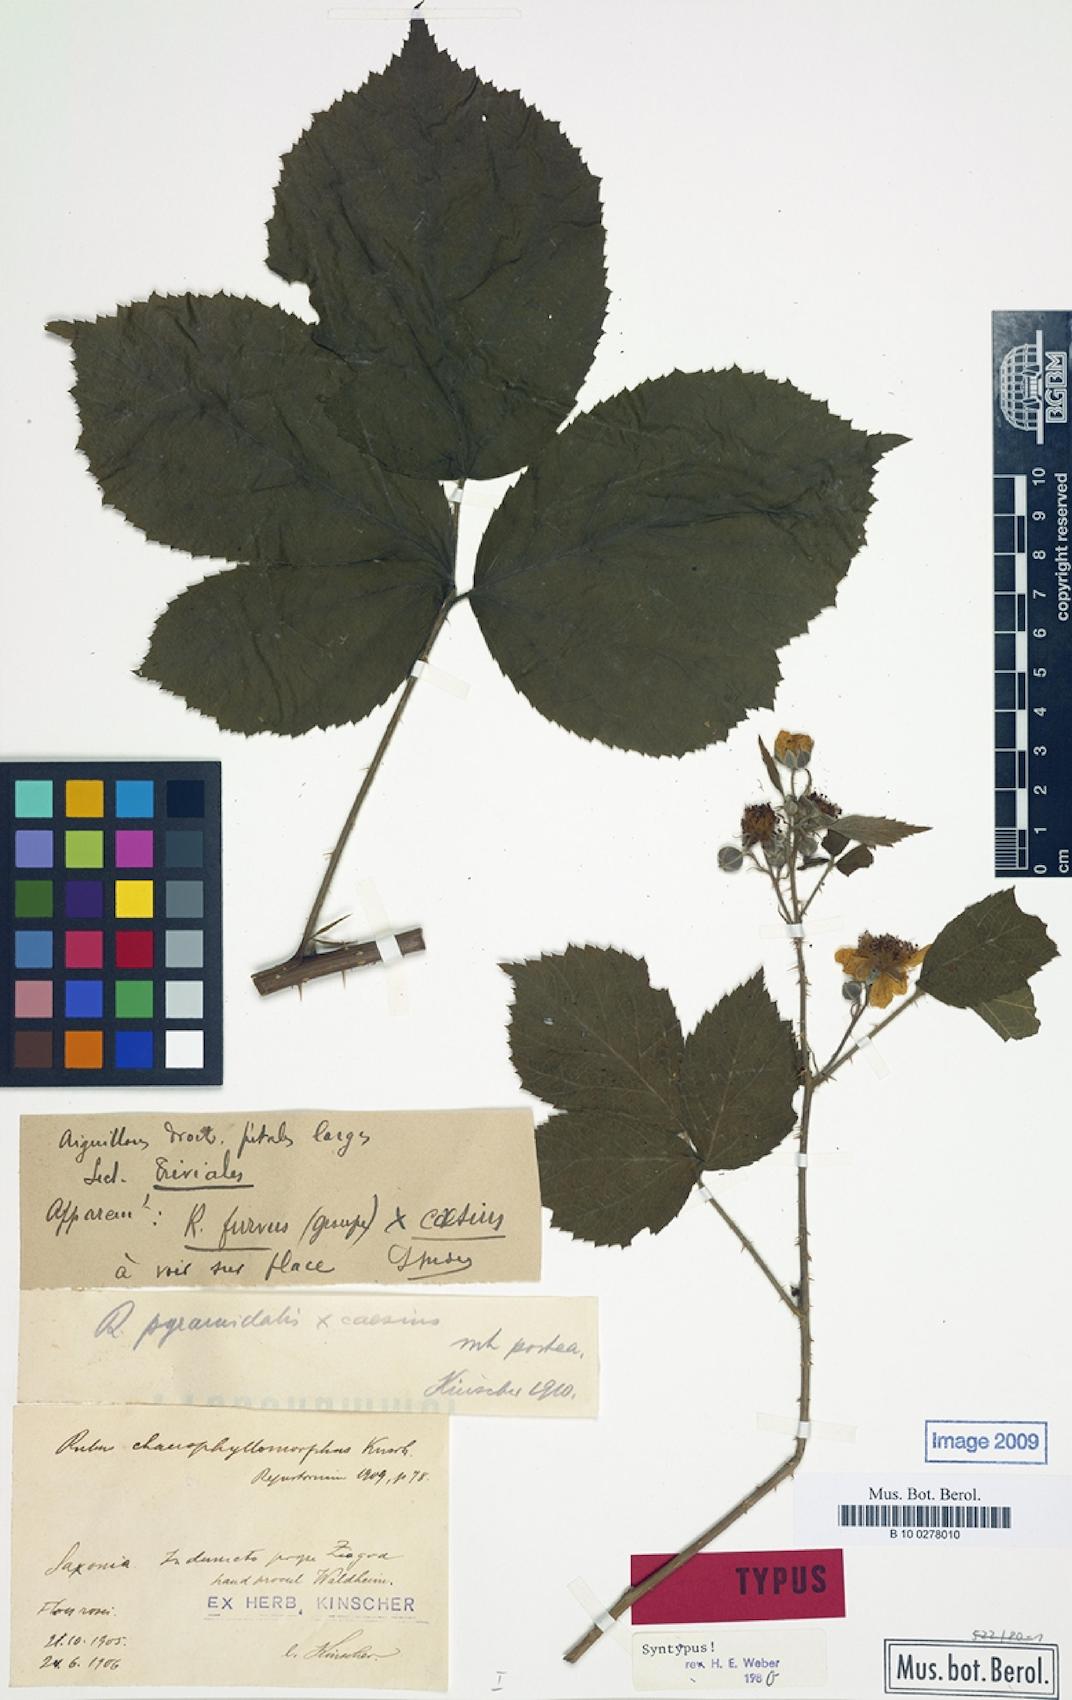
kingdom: Plantae
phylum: Tracheophyta
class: Magnoliopsida
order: Rosales
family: Rosaceae
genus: Rubus
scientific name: Rubus chaerophyllomorphus
